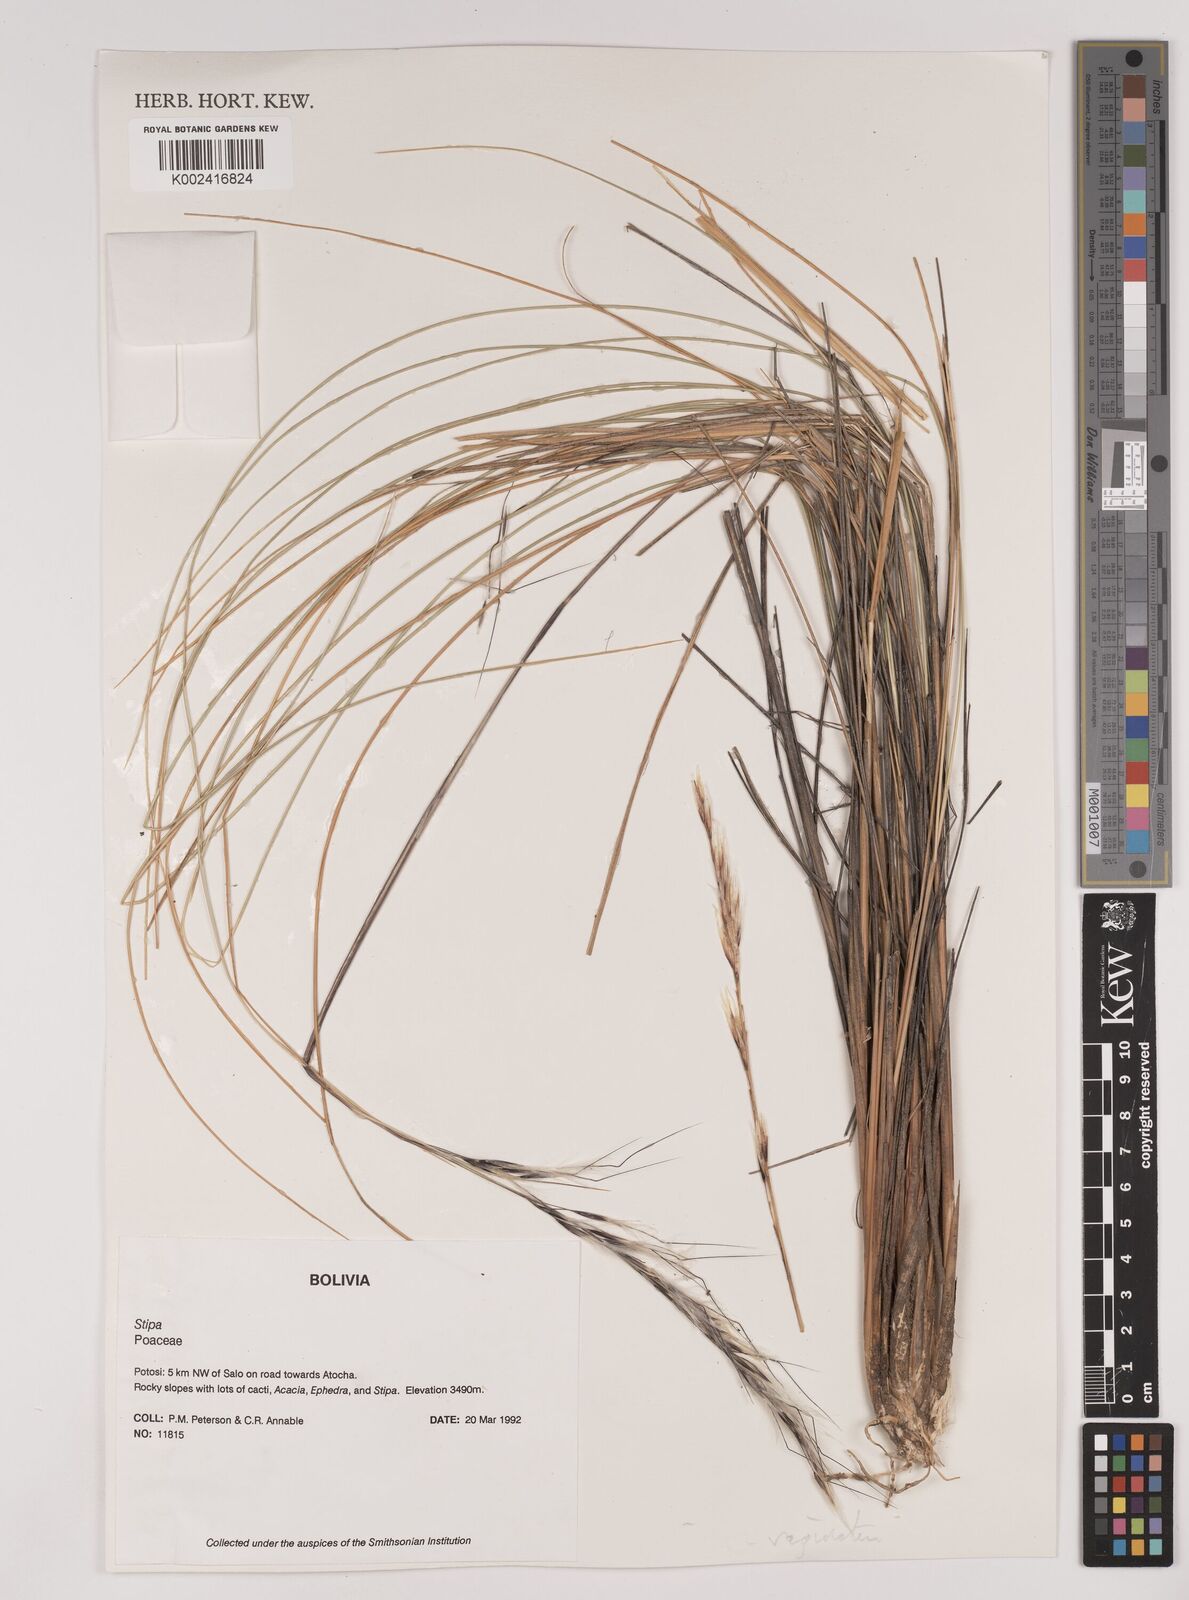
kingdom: Plantae
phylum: Tracheophyta
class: Liliopsida
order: Poales
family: Poaceae
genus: Pappostipa
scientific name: Pappostipa vaginata
